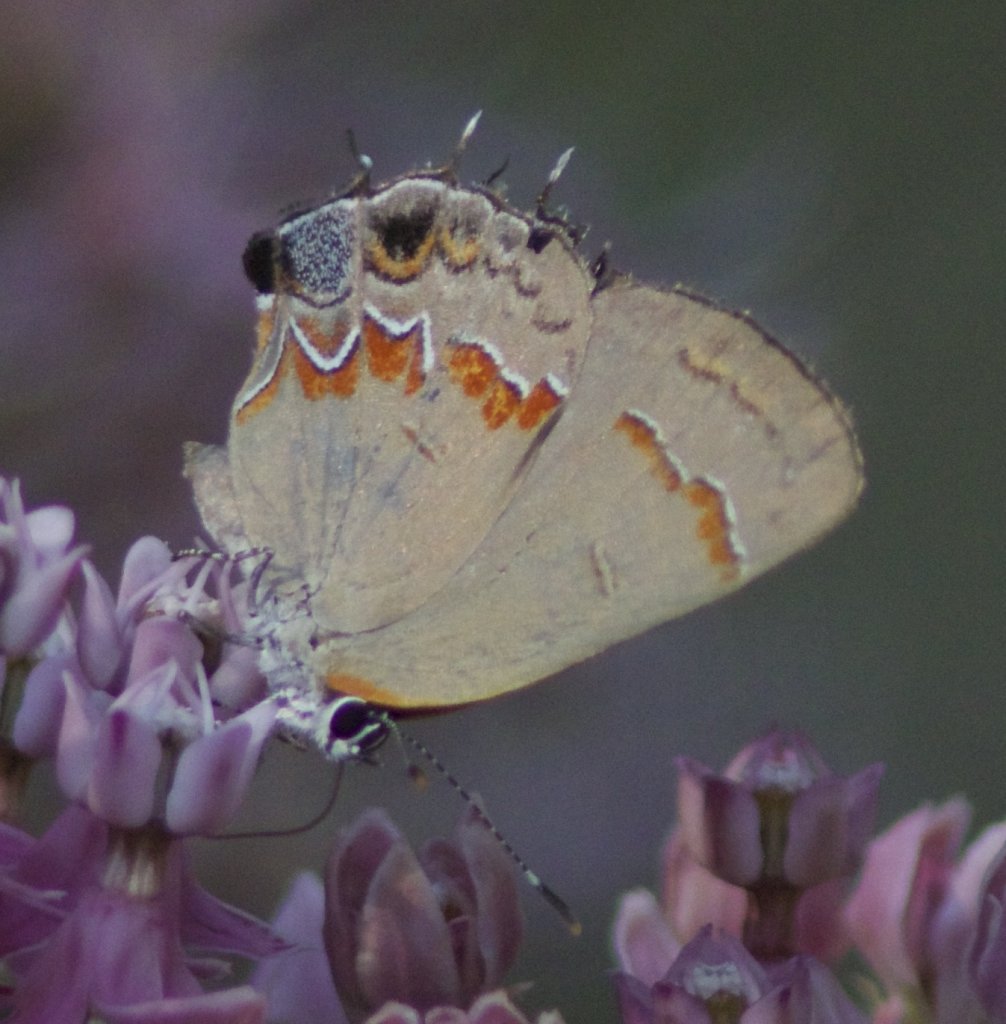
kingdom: Animalia
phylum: Arthropoda
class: Insecta
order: Lepidoptera
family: Lycaenidae
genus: Calycopis
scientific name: Calycopis cecrops
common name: Red-banded Hairstreak
